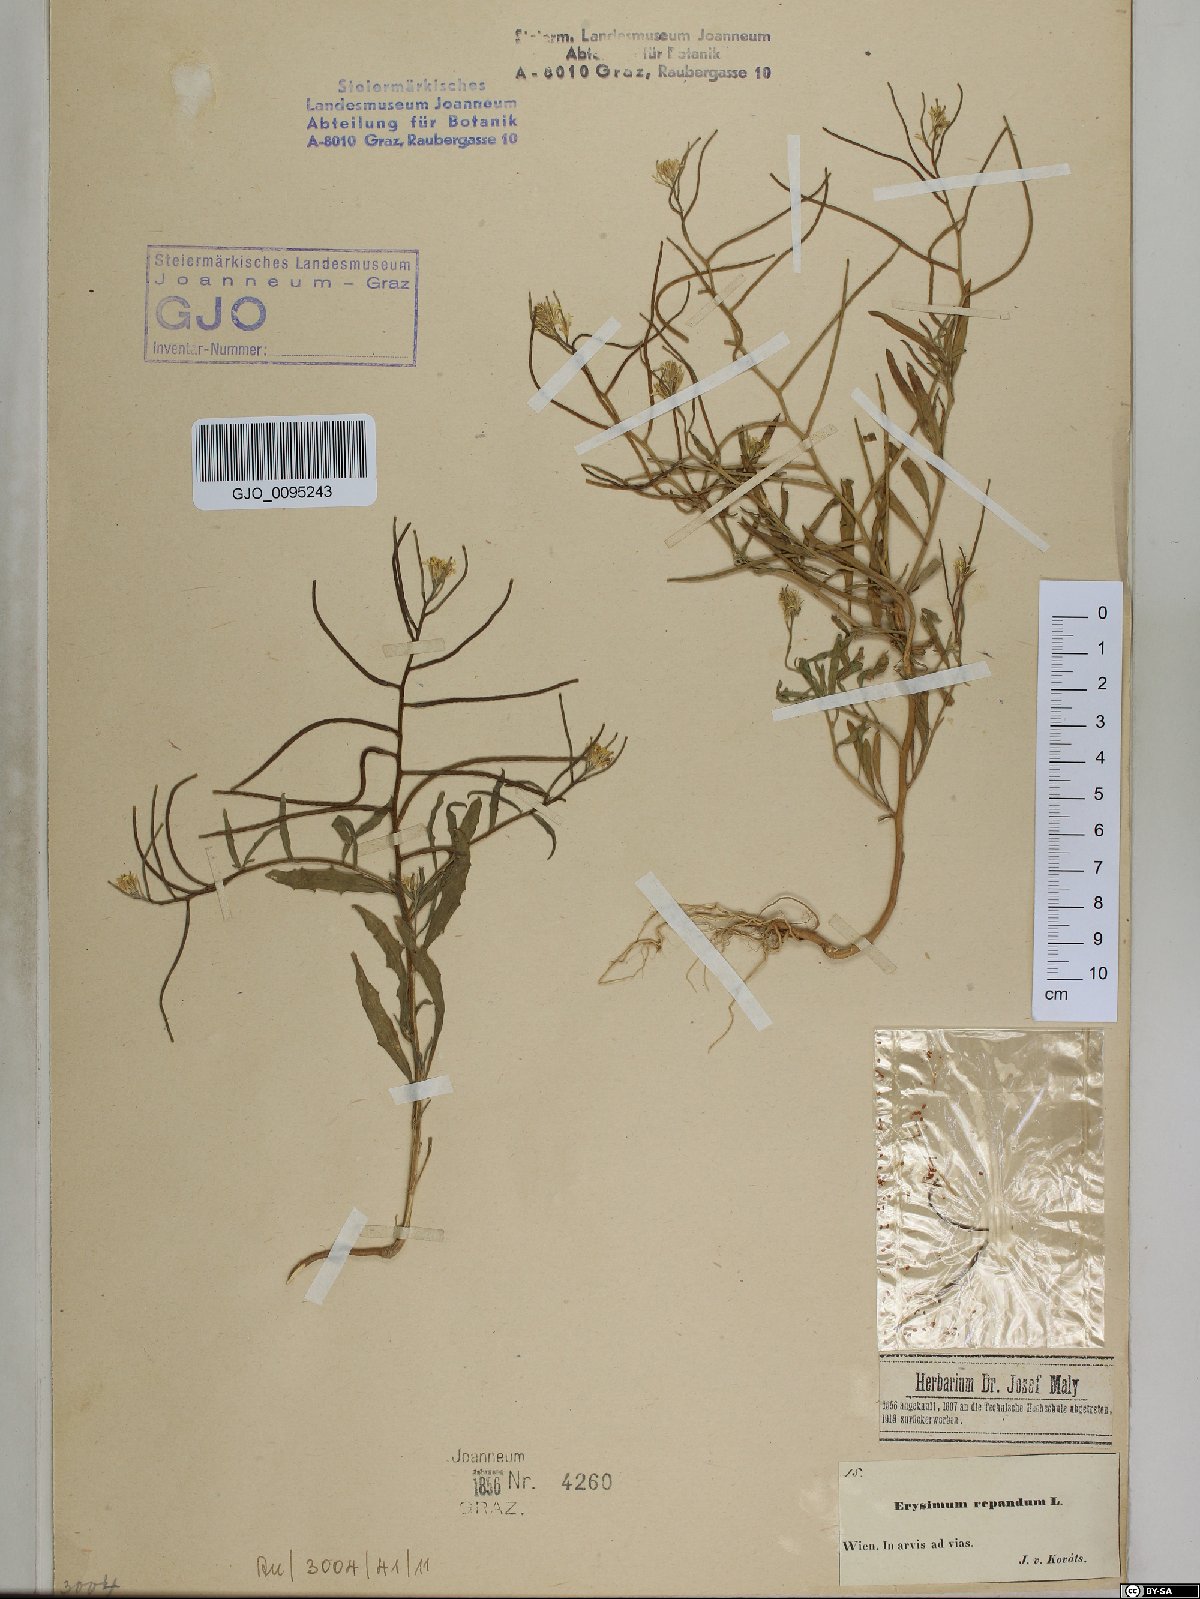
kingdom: Plantae
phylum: Tracheophyta
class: Magnoliopsida
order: Brassicales
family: Brassicaceae
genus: Erysimum
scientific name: Erysimum repandum
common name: Spreading wallflower
